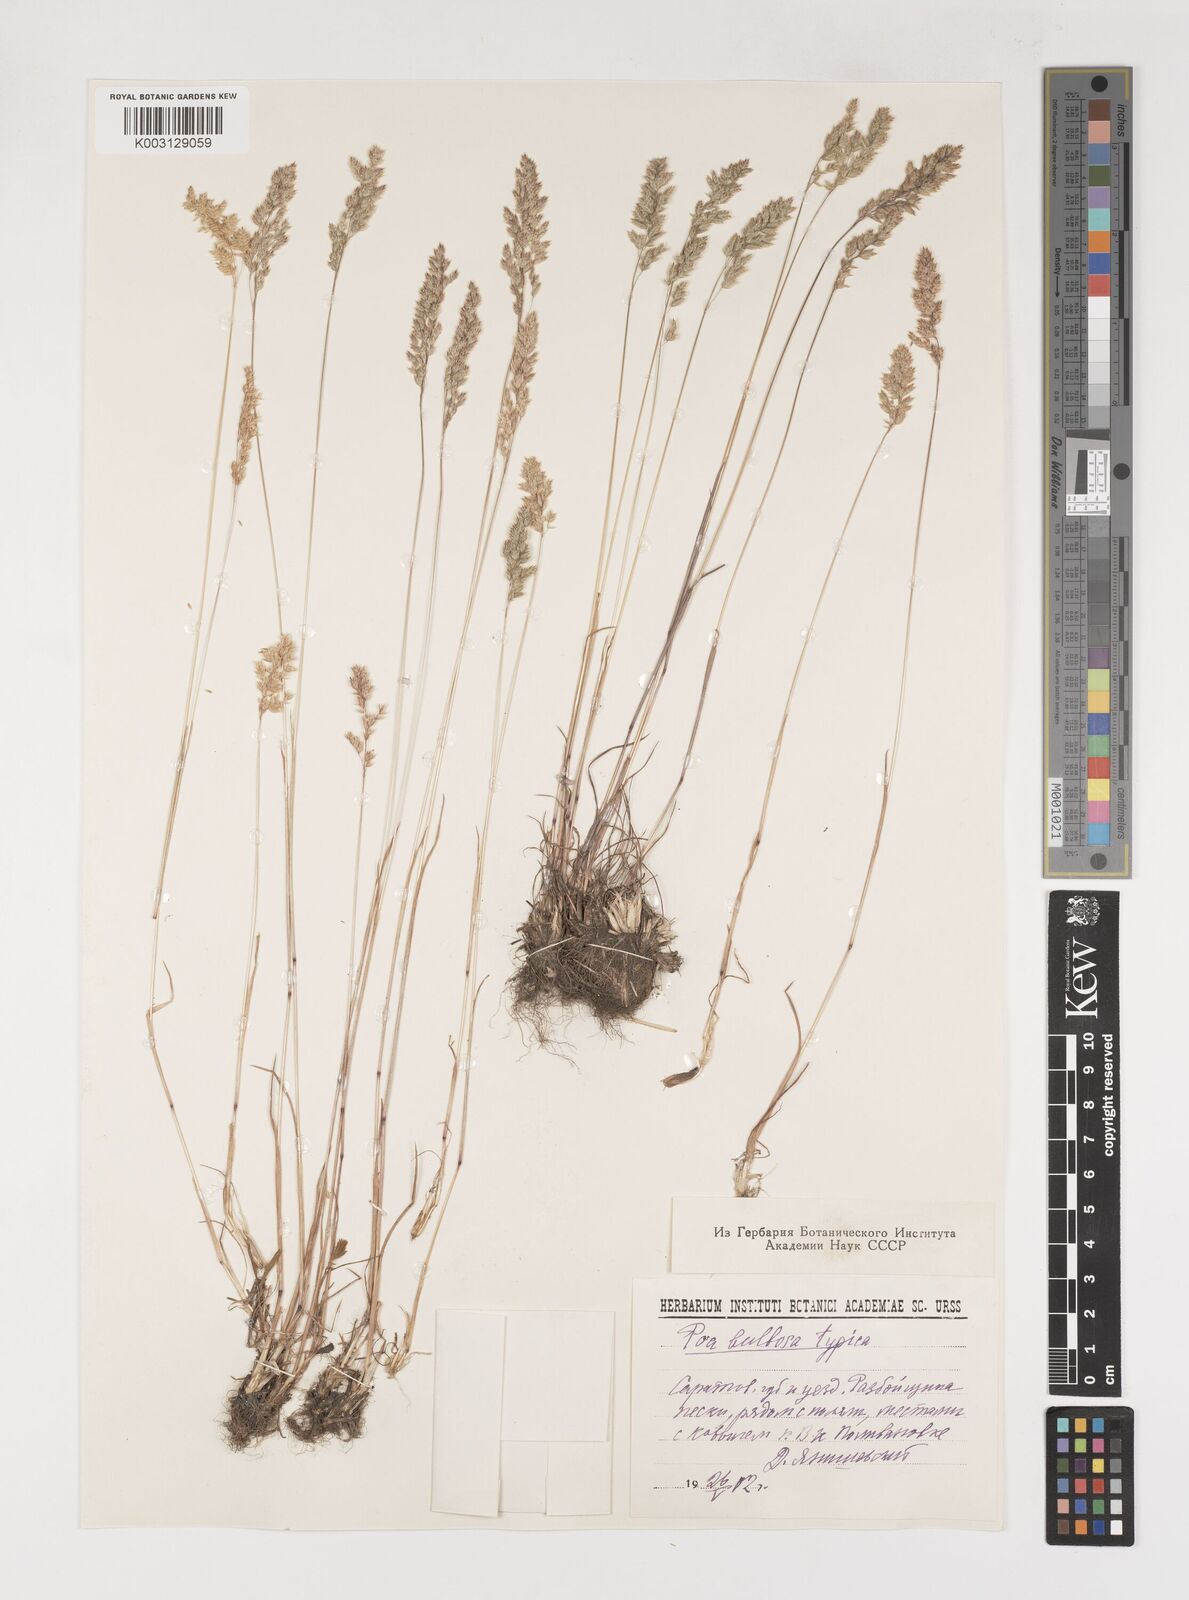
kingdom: Plantae
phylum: Tracheophyta
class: Liliopsida
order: Poales
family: Poaceae
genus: Poa
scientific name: Poa
